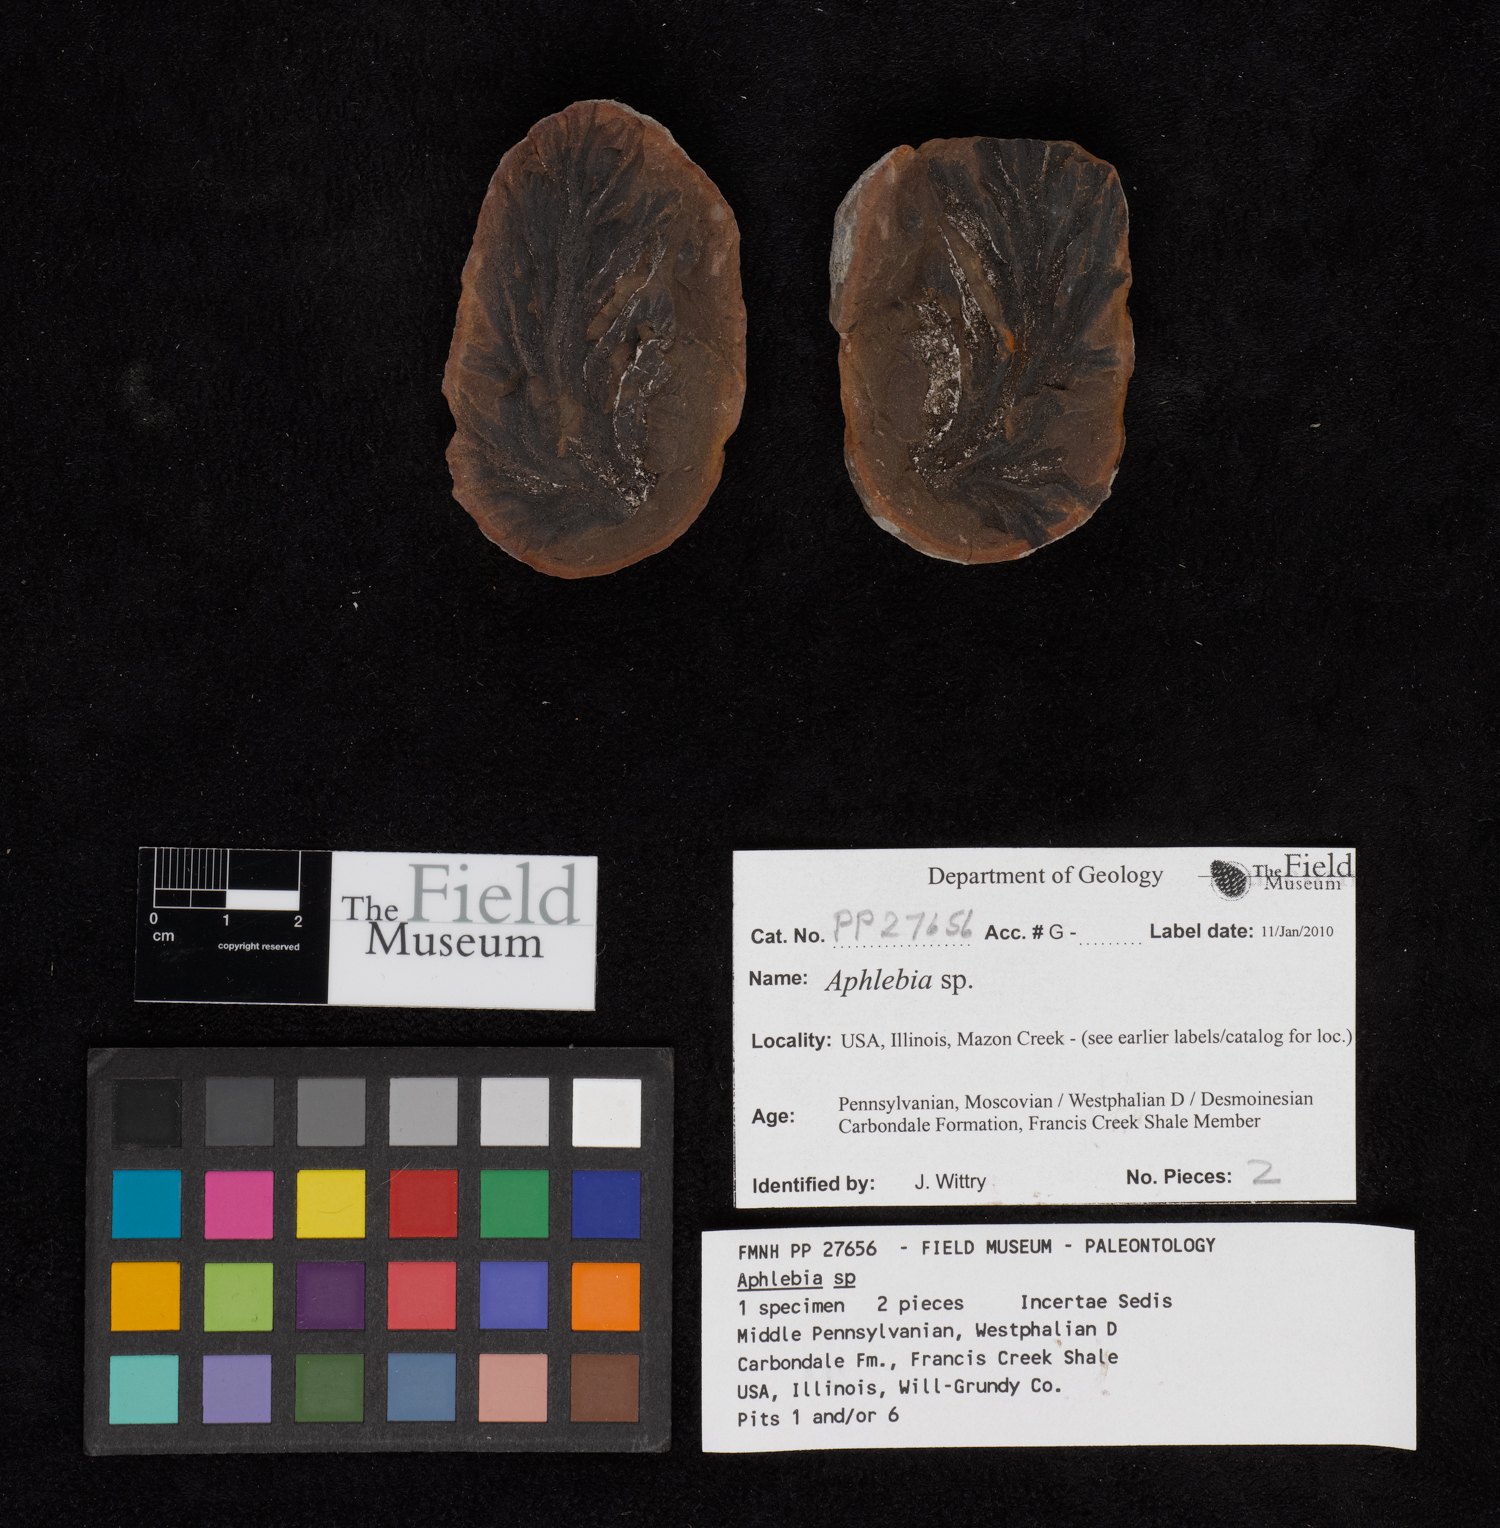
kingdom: Plantae
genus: Rhacophyllum
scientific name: Rhacophyllum
